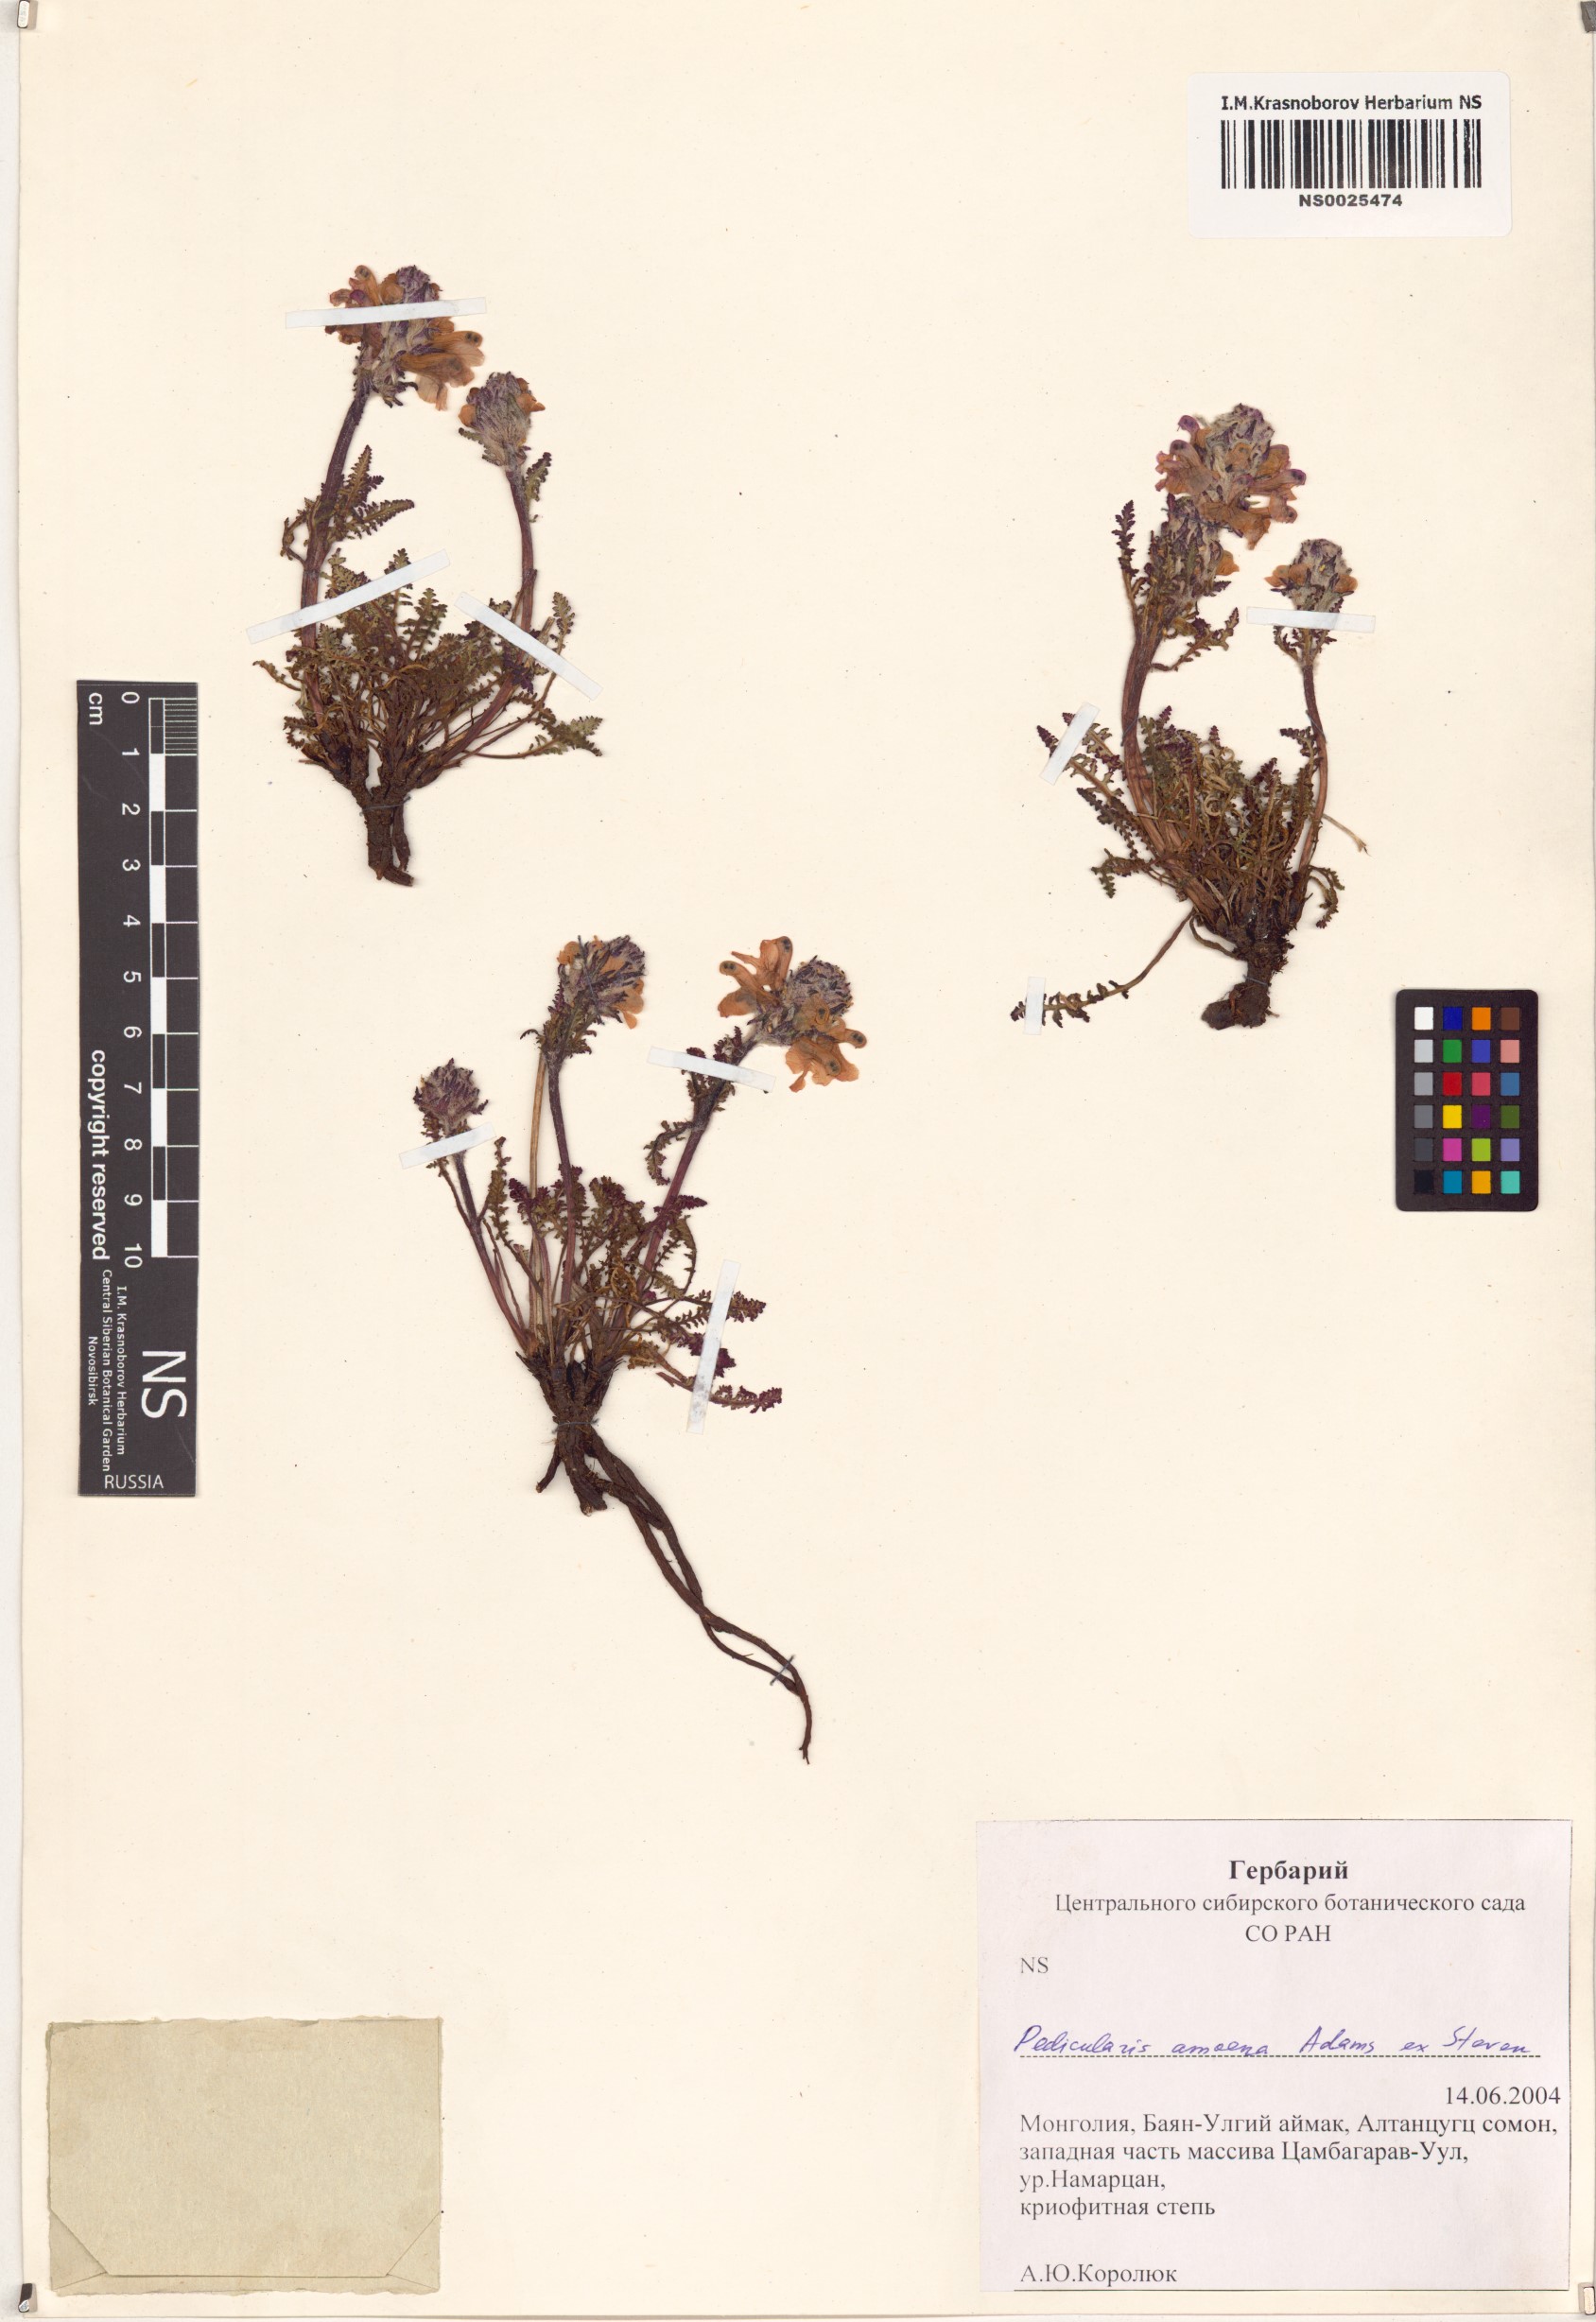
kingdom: Plantae
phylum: Tracheophyta
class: Magnoliopsida
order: Lamiales
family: Orobanchaceae
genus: Pedicularis
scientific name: Pedicularis amoena
